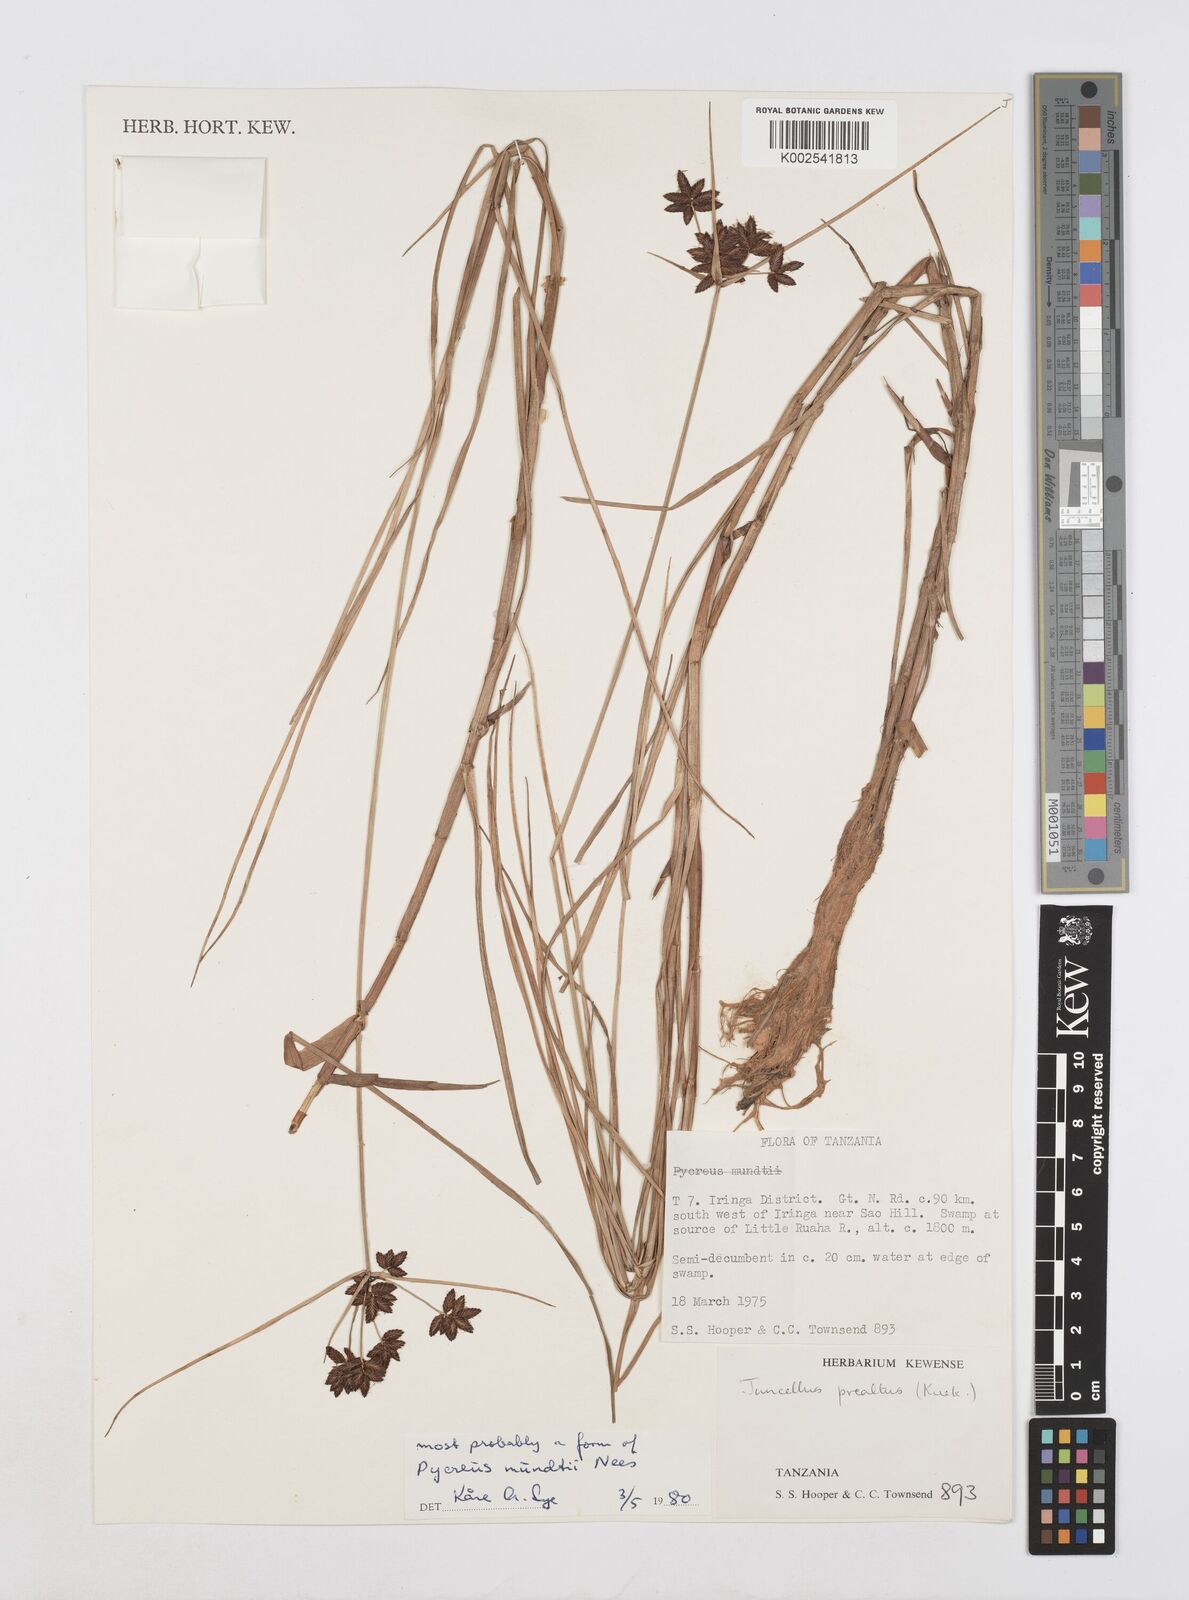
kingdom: Plantae
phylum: Tracheophyta
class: Liliopsida
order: Poales
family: Cyperaceae
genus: Cyperus
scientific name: Cyperus mundii
